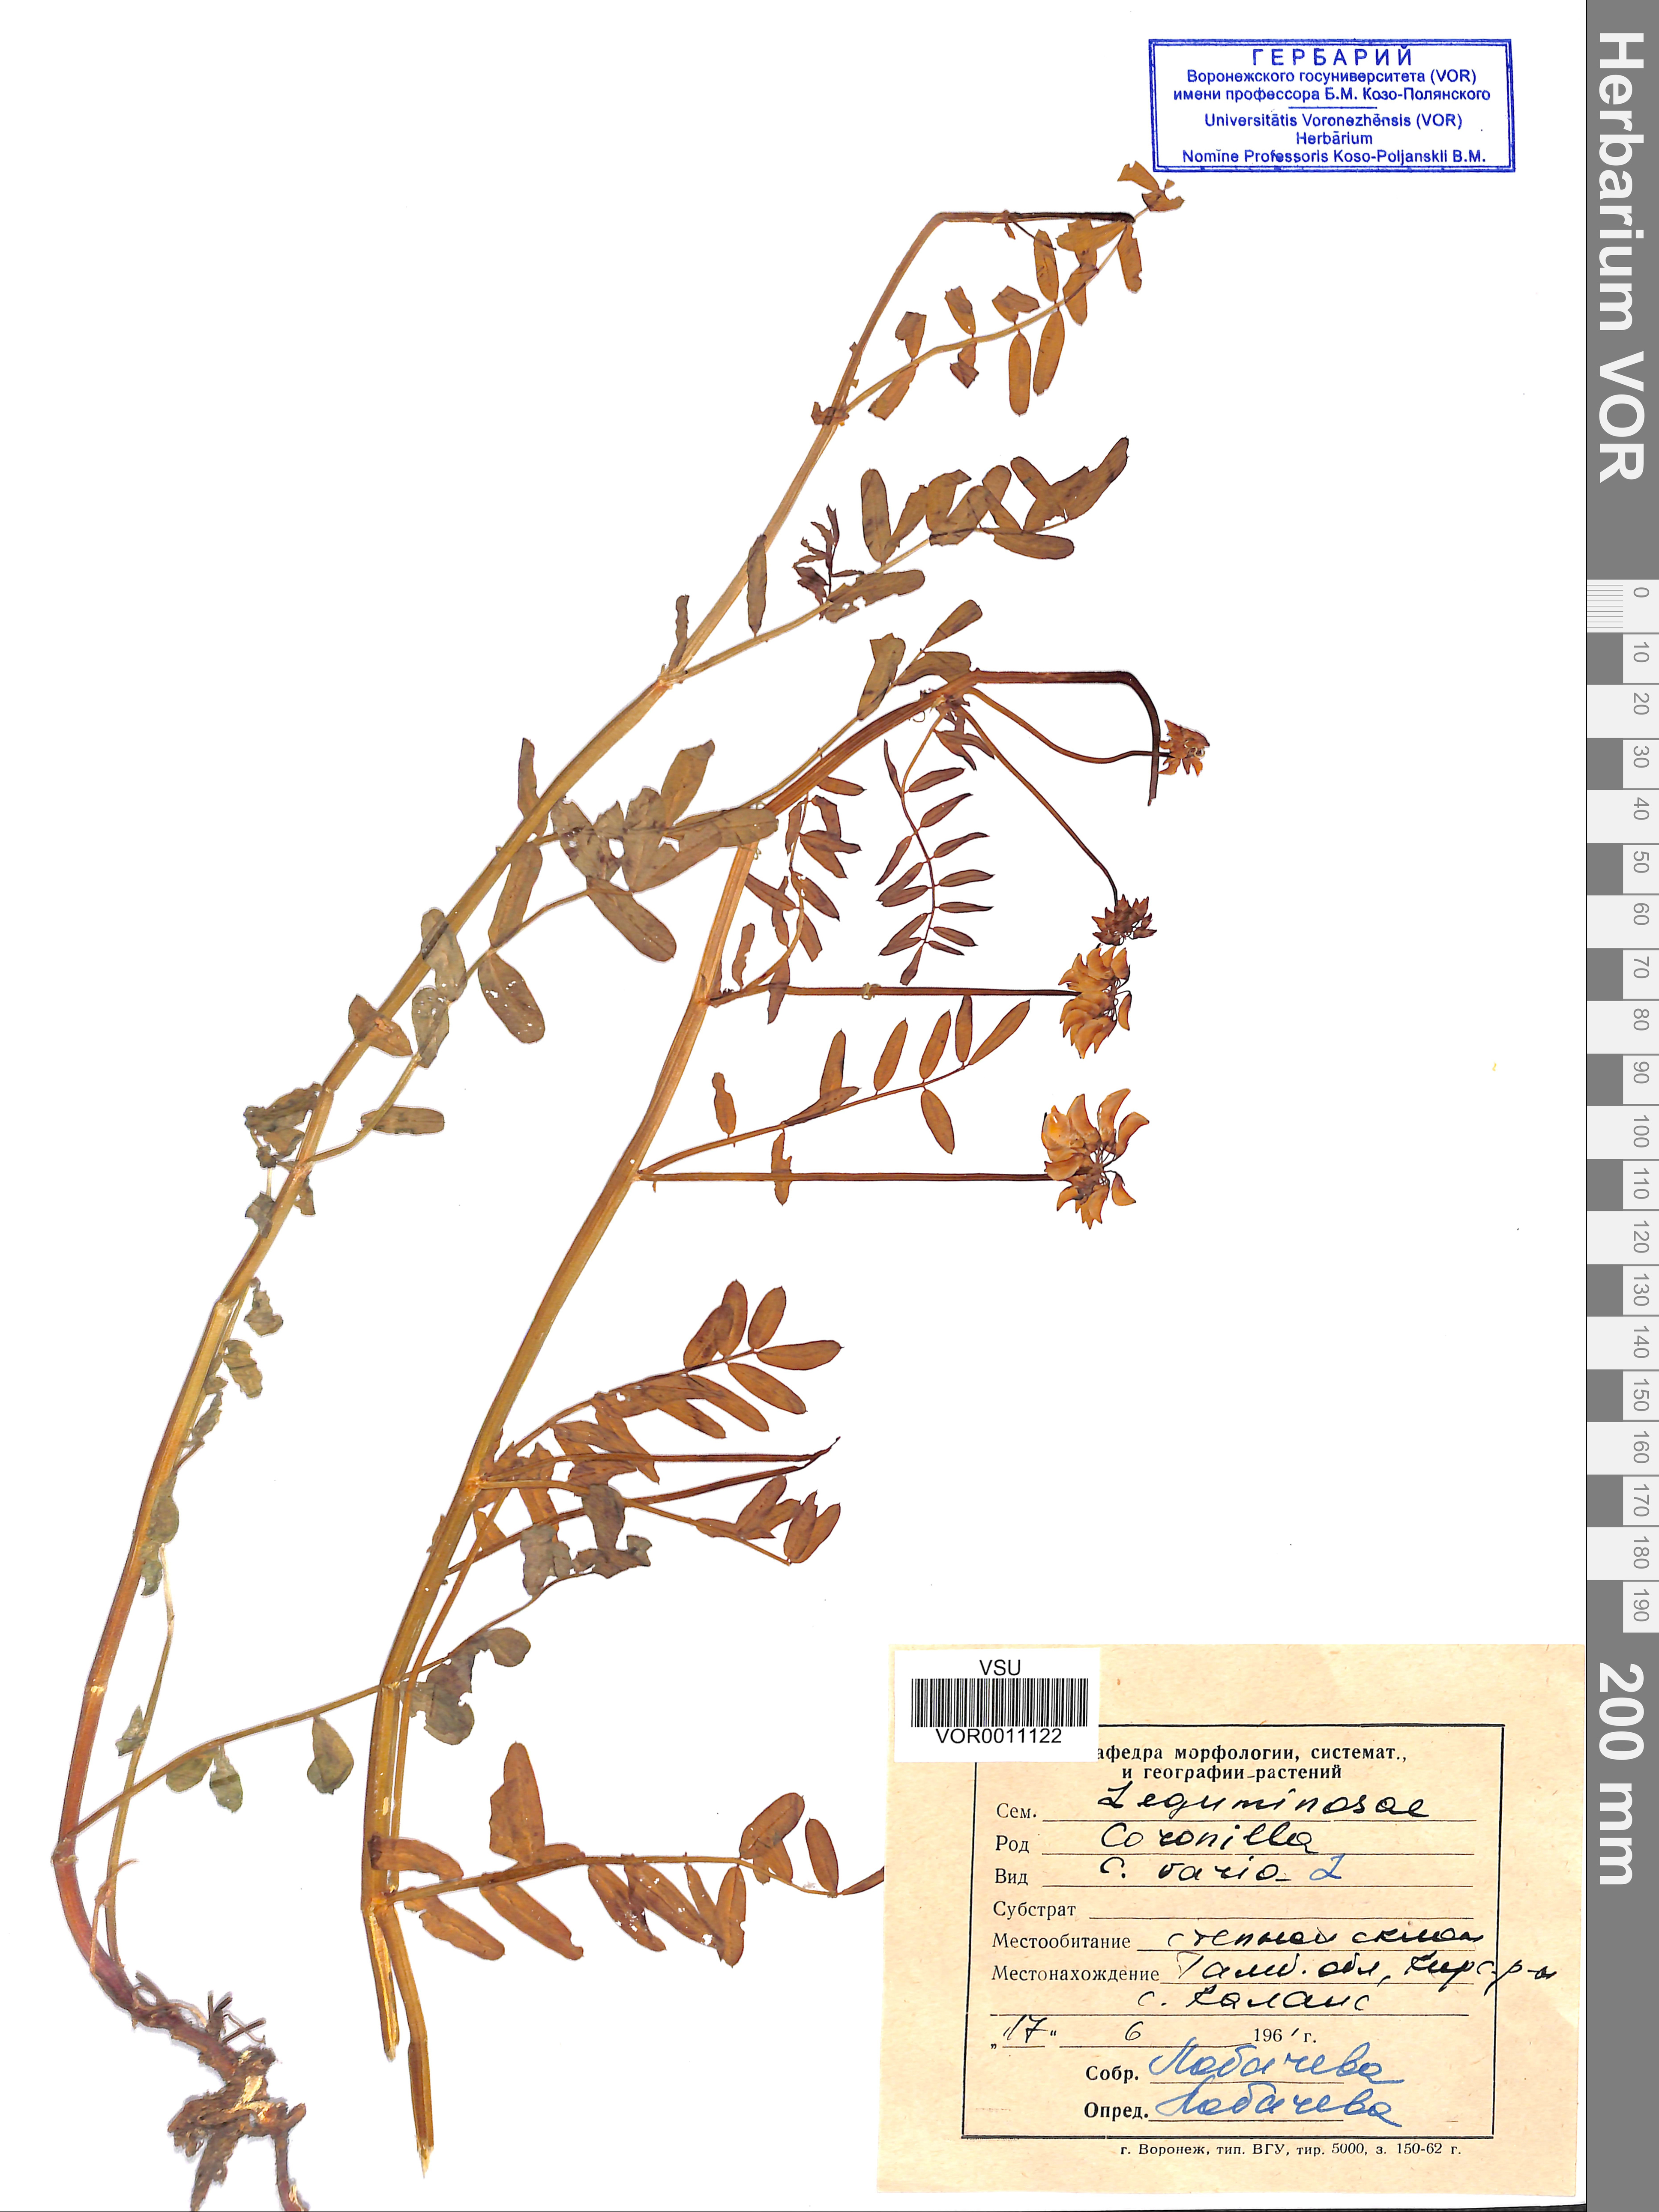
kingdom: Plantae
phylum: Tracheophyta
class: Magnoliopsida
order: Fabales
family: Fabaceae
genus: Coronilla
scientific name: Coronilla varia
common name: Crownvetch
